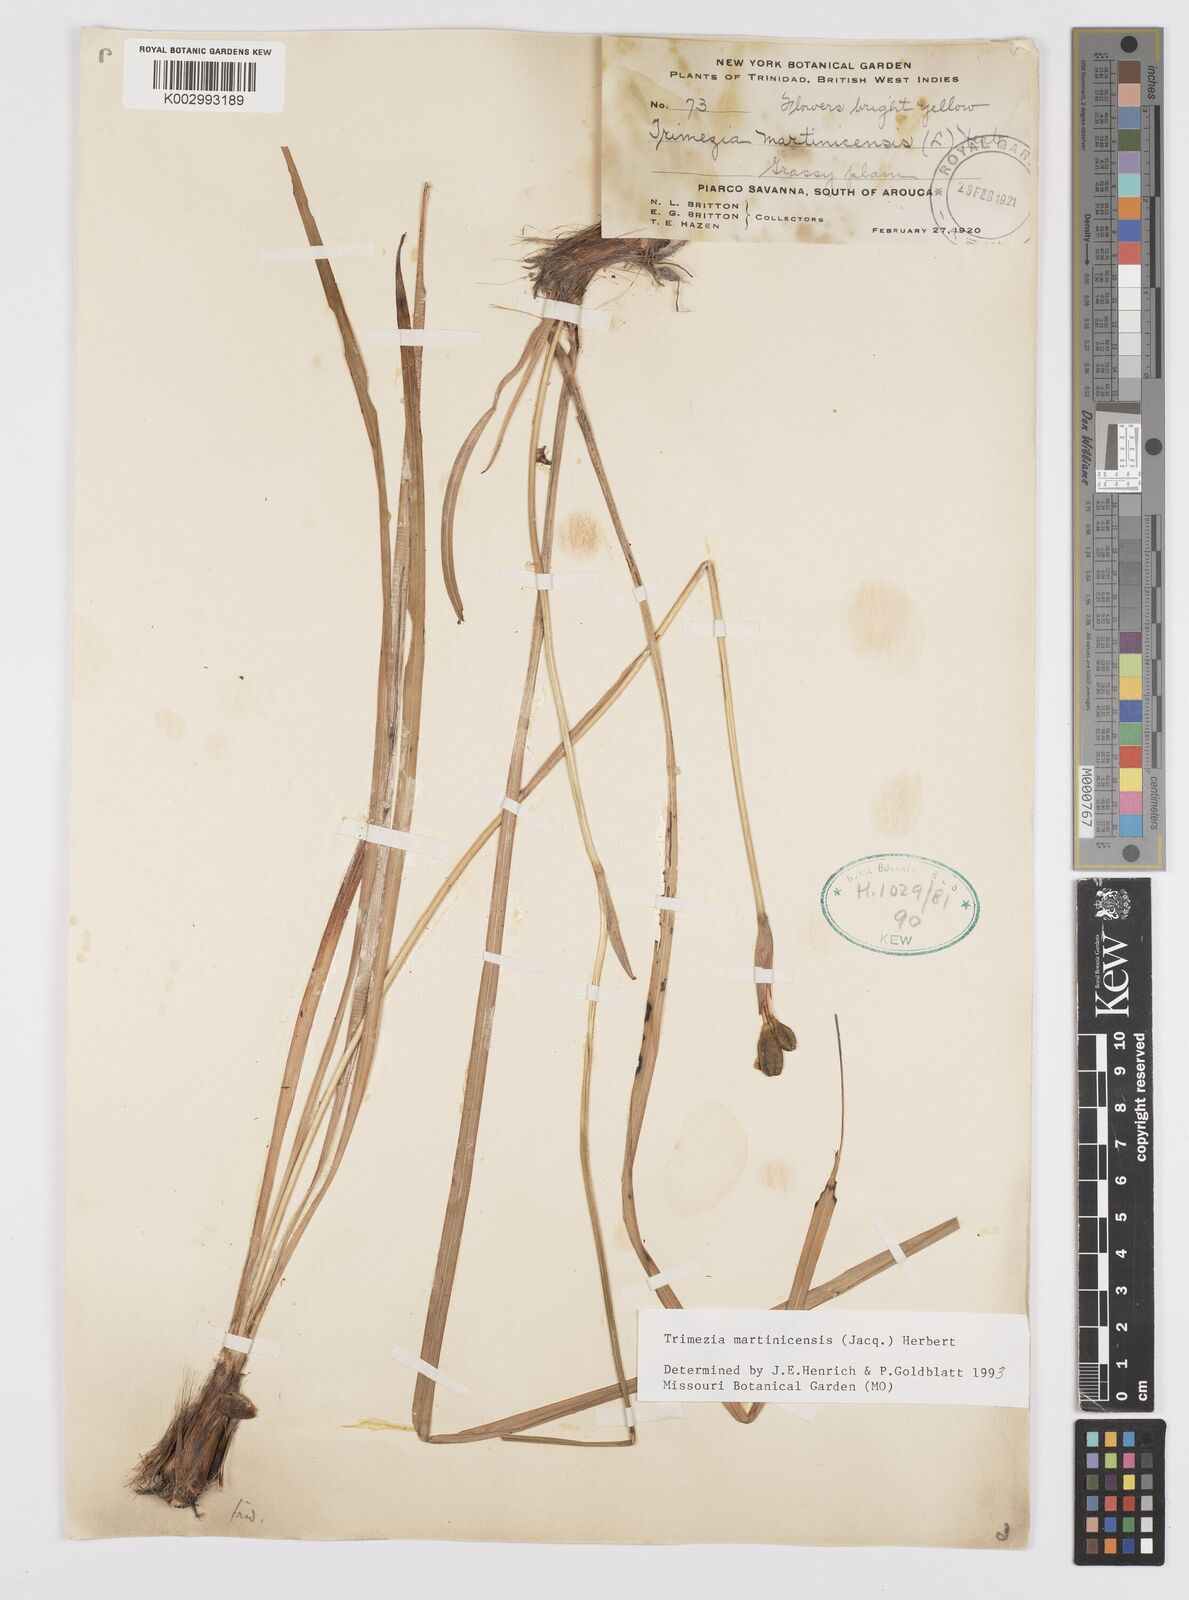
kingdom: Plantae
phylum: Tracheophyta
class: Liliopsida
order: Asparagales
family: Iridaceae
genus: Trimezia
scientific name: Trimezia martinicensis
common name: Martinique trimezia
